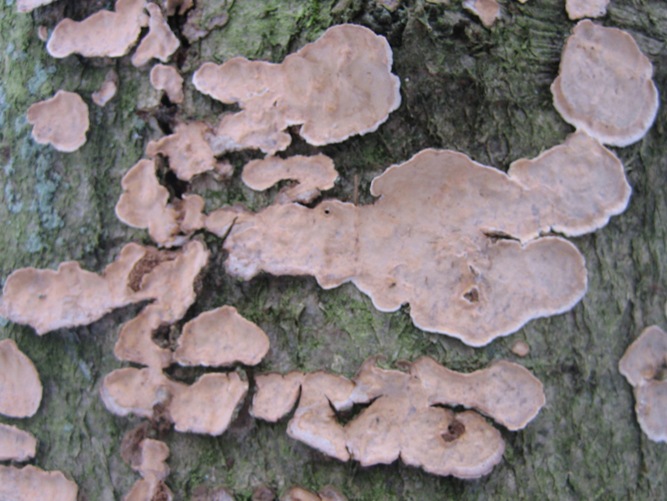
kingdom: Fungi
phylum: Basidiomycota
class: Agaricomycetes
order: Russulales
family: Stereaceae
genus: Stereum
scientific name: Stereum rugosum
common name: rynket lædersvamp
